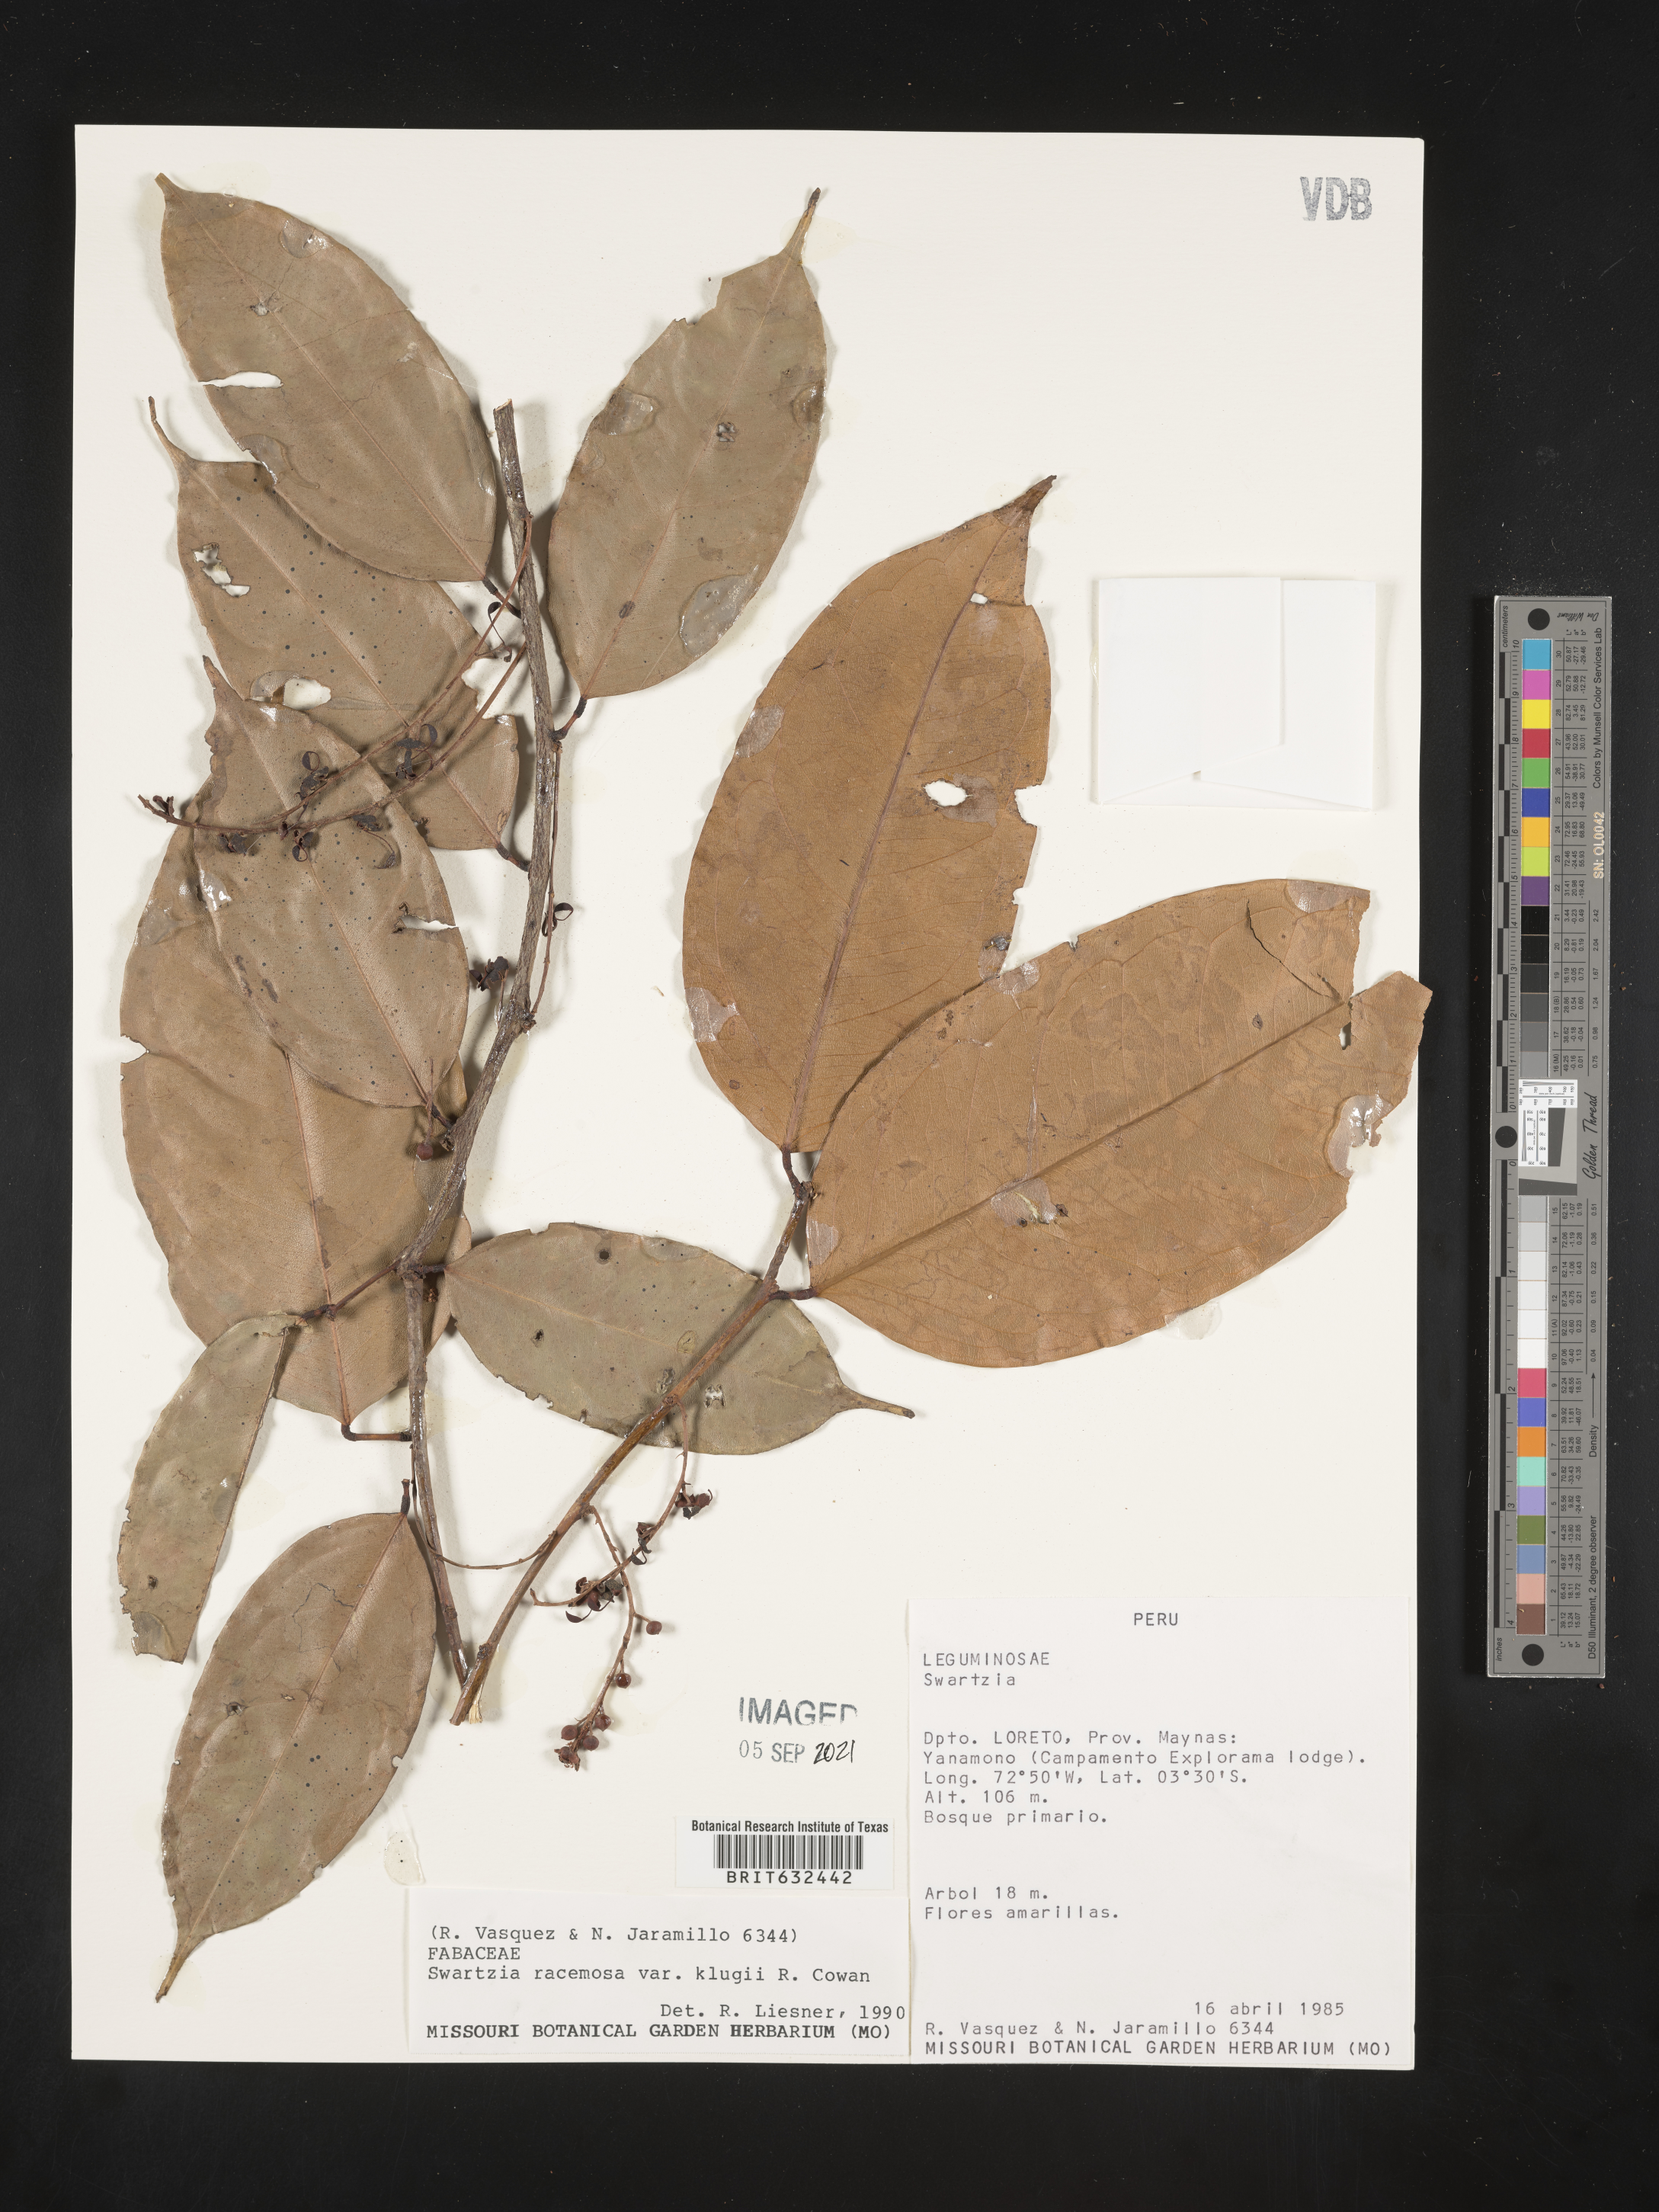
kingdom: Plantae
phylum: Tracheophyta
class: Magnoliopsida
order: Fabales
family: Fabaceae
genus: Swartzia
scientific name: Swartzia
